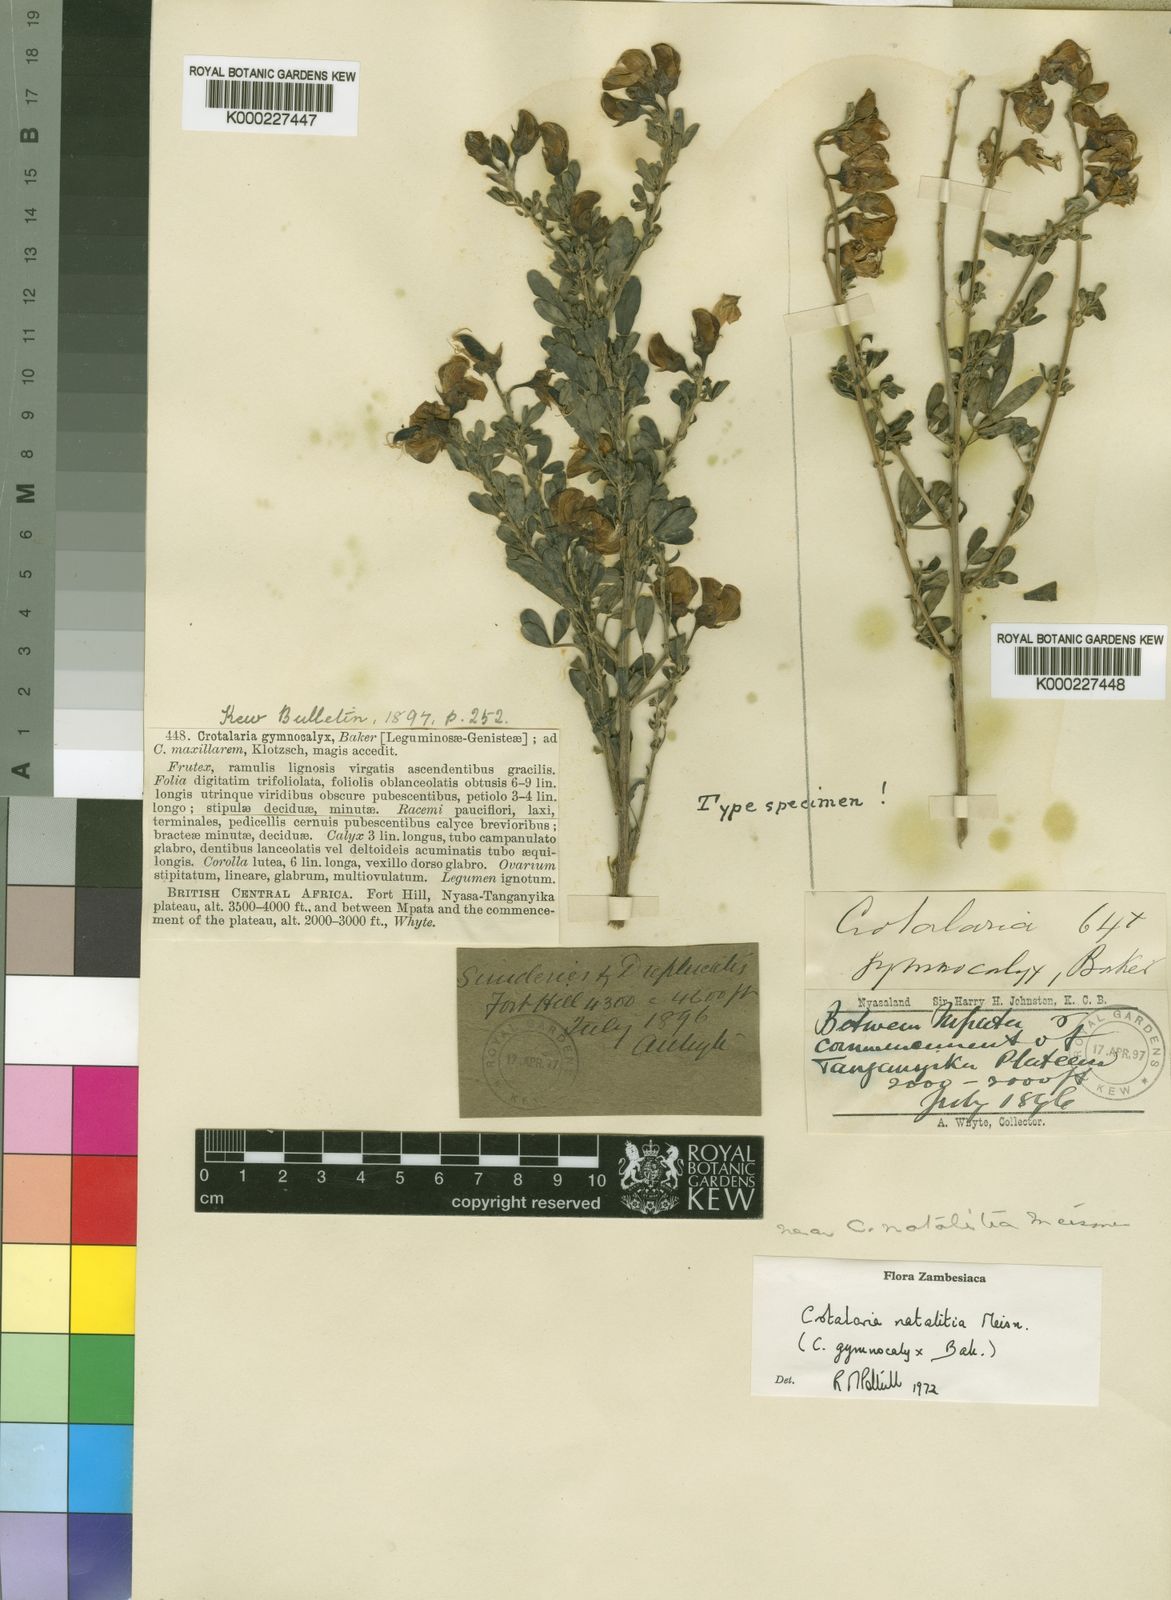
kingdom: Plantae
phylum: Tracheophyta
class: Magnoliopsida
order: Fabales
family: Fabaceae
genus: Crotalaria
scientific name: Crotalaria natalitia
